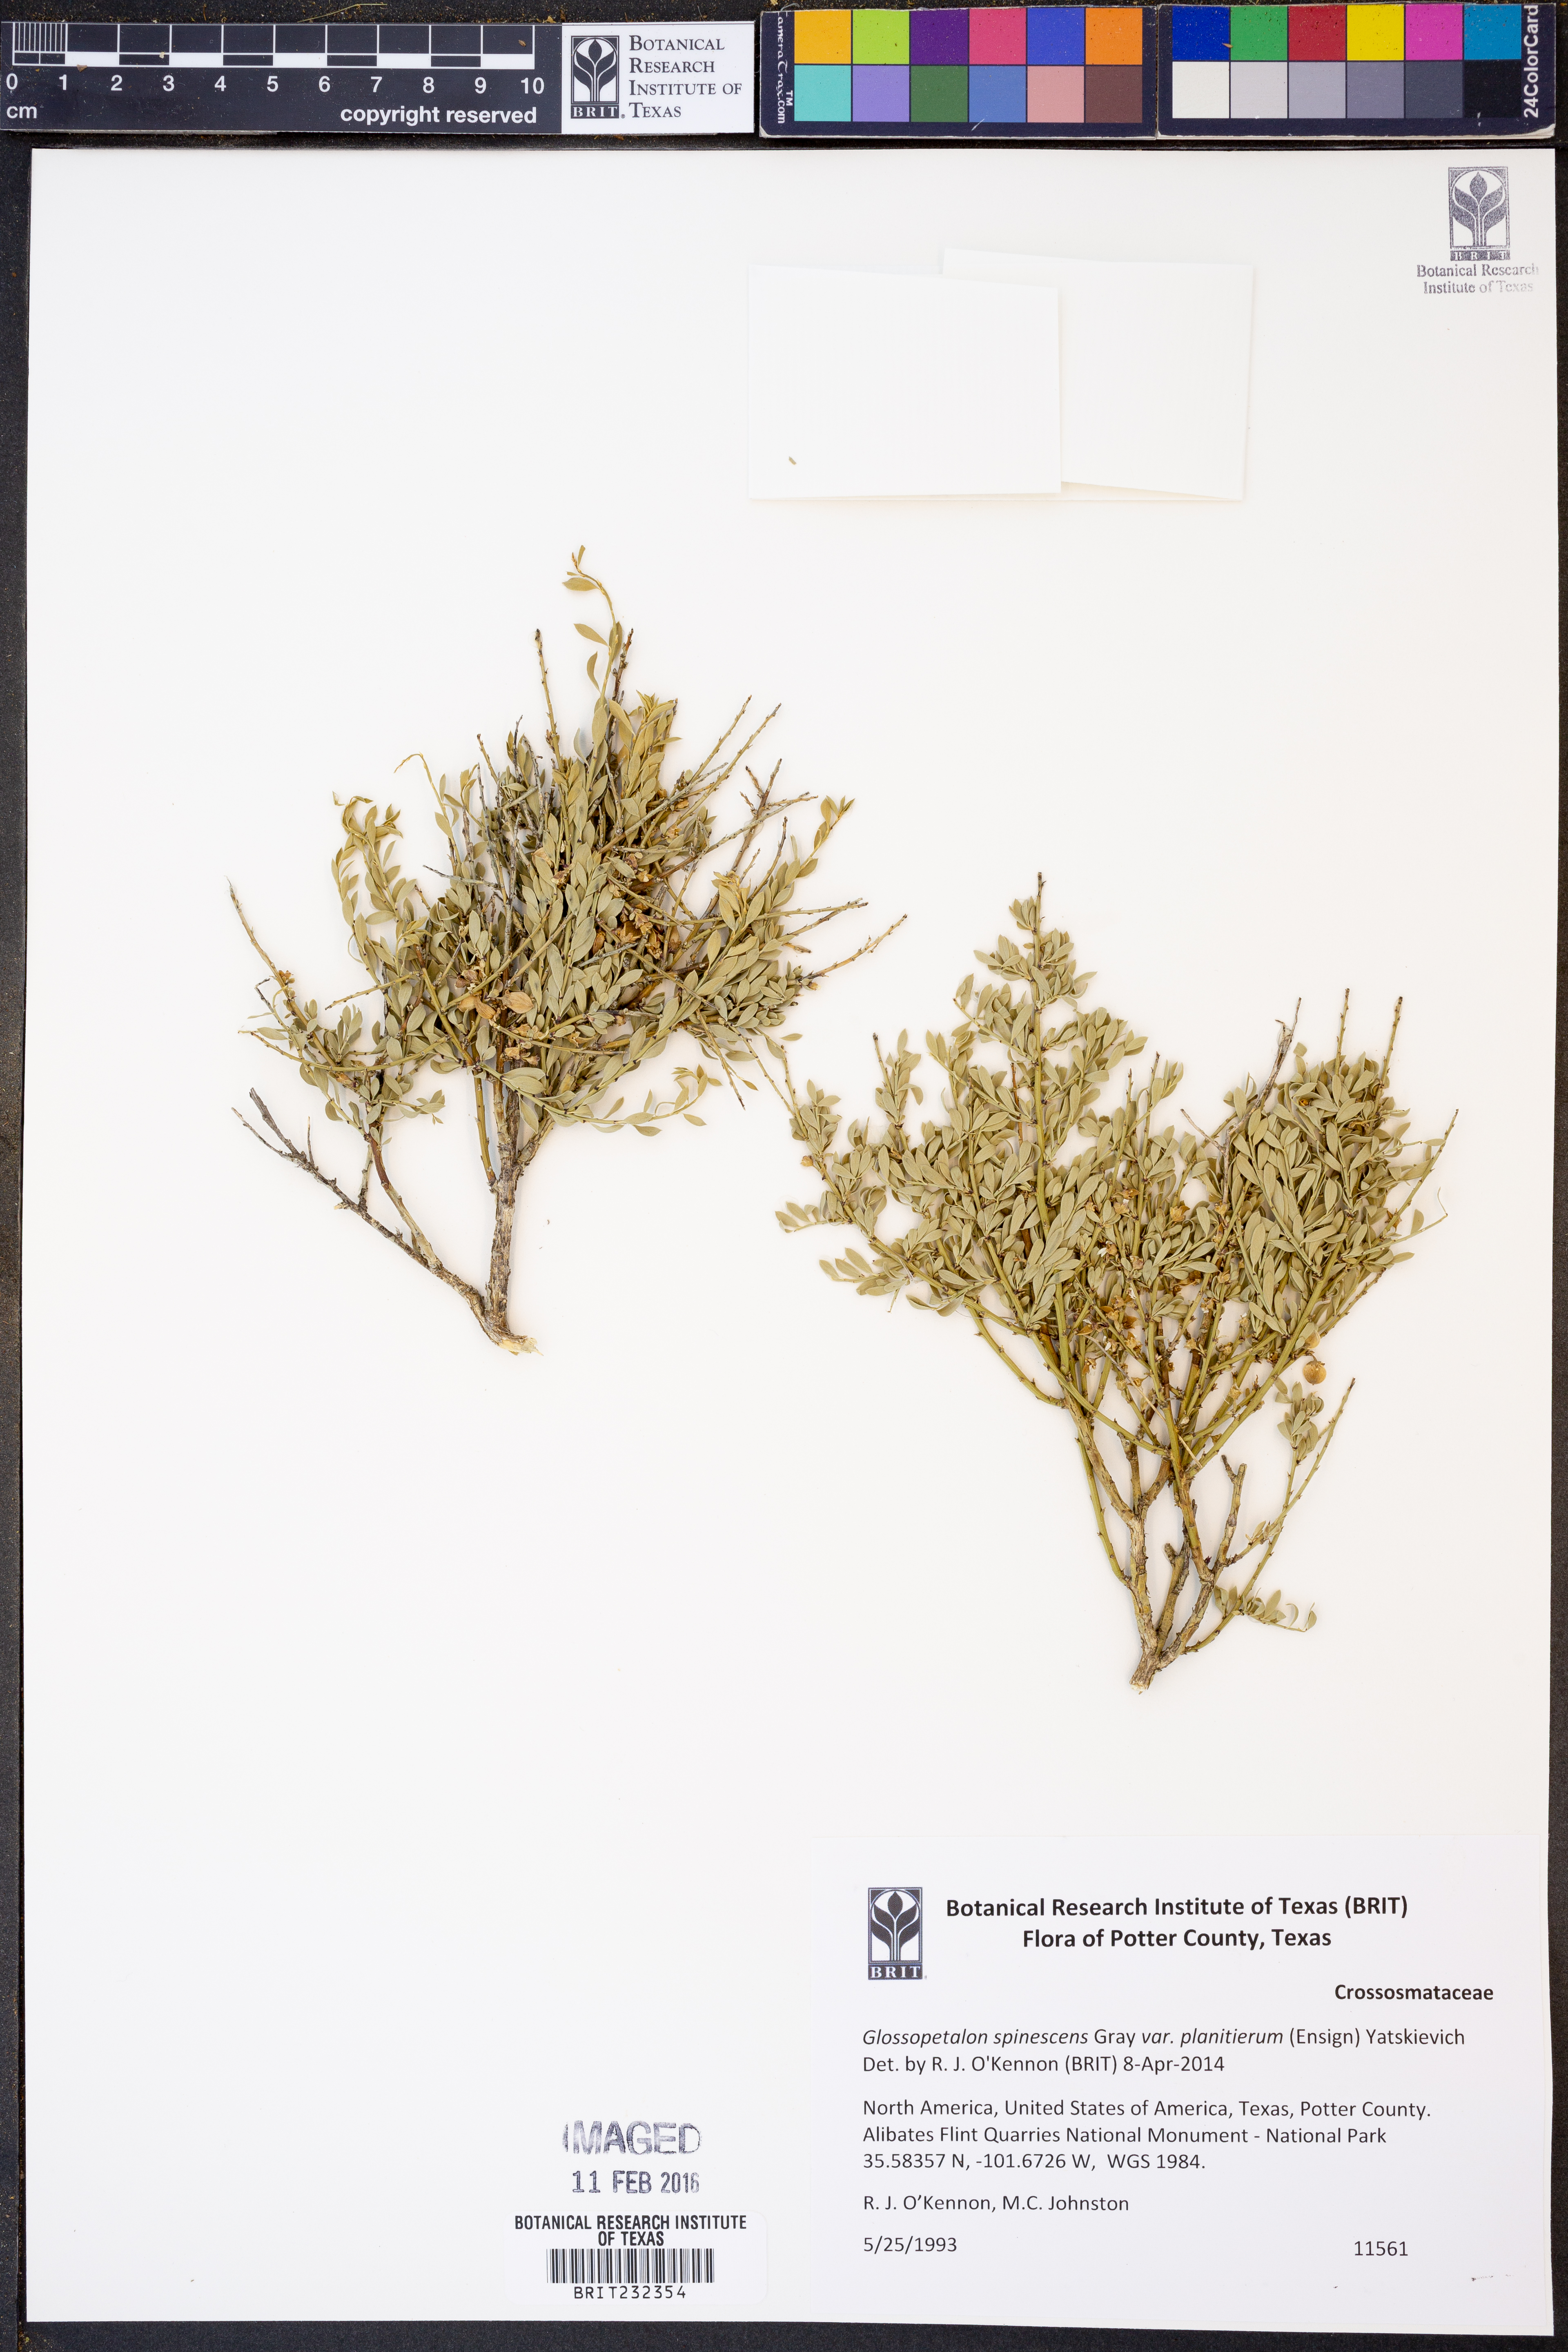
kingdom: Plantae
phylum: Tracheophyta
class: Magnoliopsida
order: Crossosomatales
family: Crossosomataceae
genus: Glossopetalon
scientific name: Glossopetalon spinescens
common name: Spring greasebush
